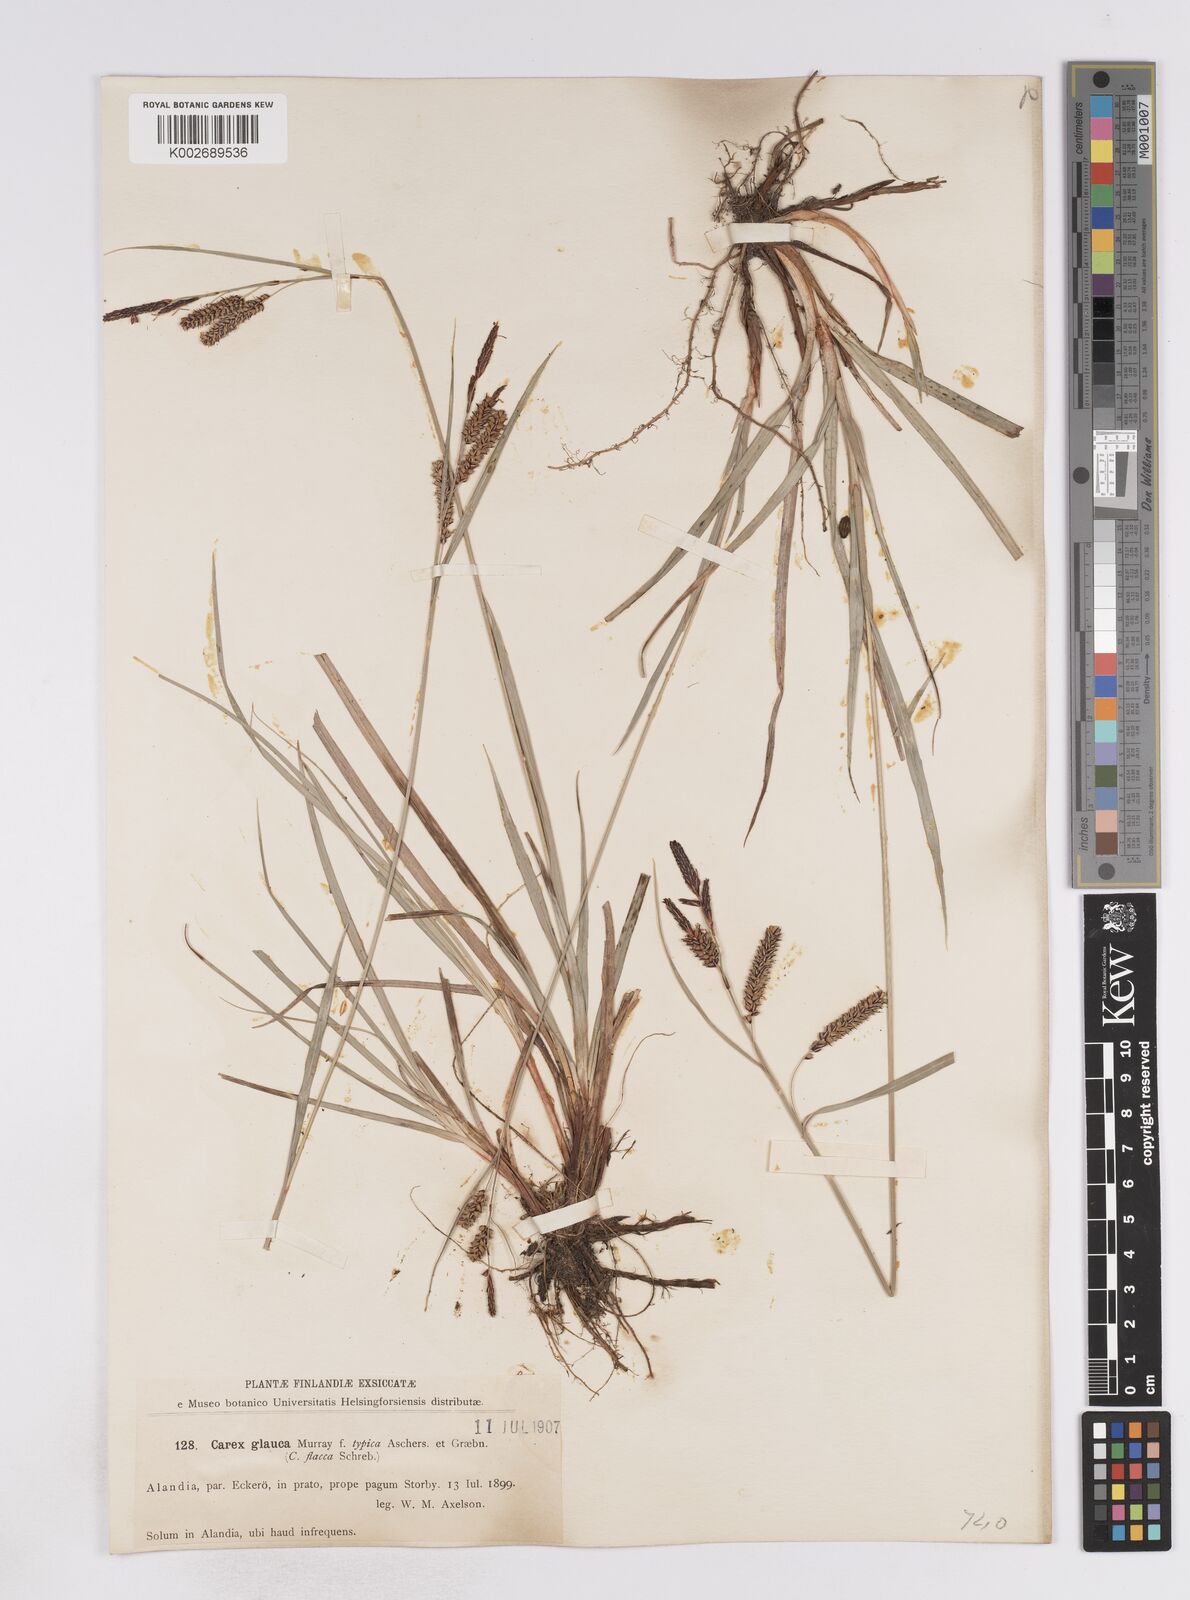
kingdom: Plantae
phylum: Tracheophyta
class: Liliopsida
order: Poales
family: Cyperaceae
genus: Carex
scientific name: Carex flacca
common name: Glaucous sedge
